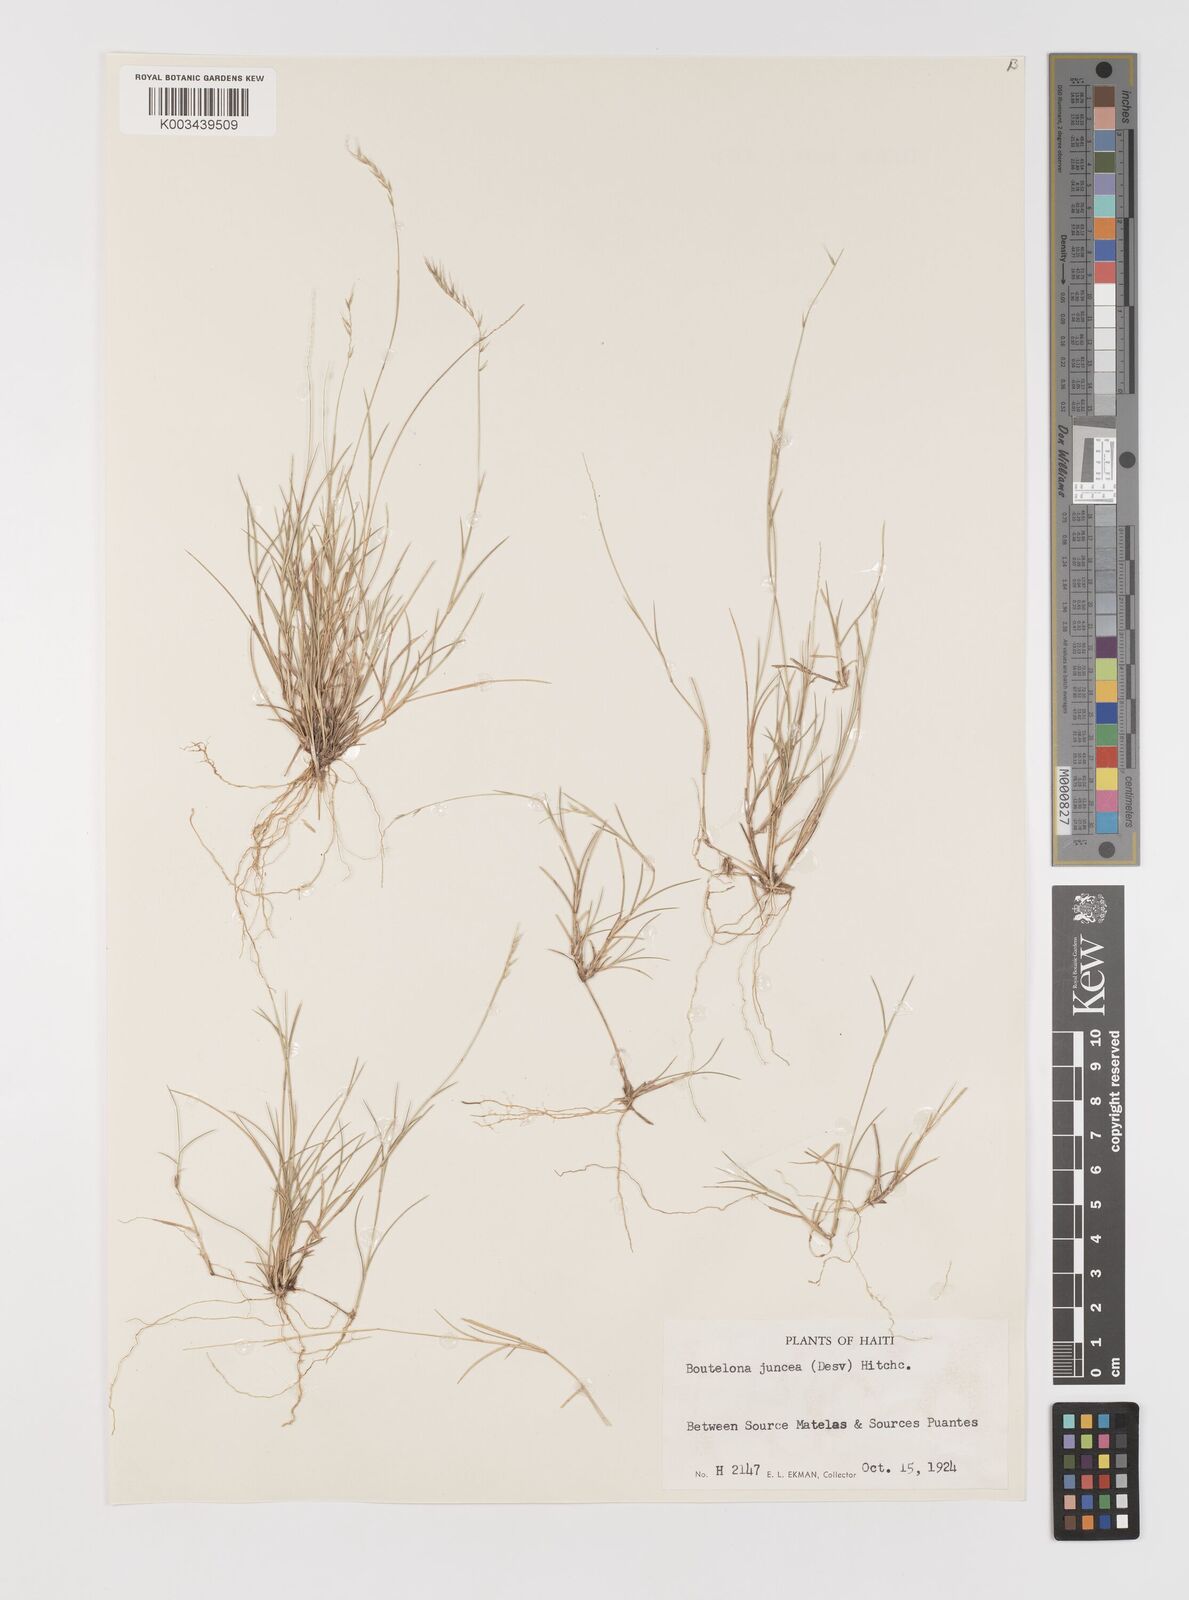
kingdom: Plantae
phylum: Tracheophyta
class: Liliopsida
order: Poales
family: Poaceae
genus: Bouteloua
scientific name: Bouteloua juncea
